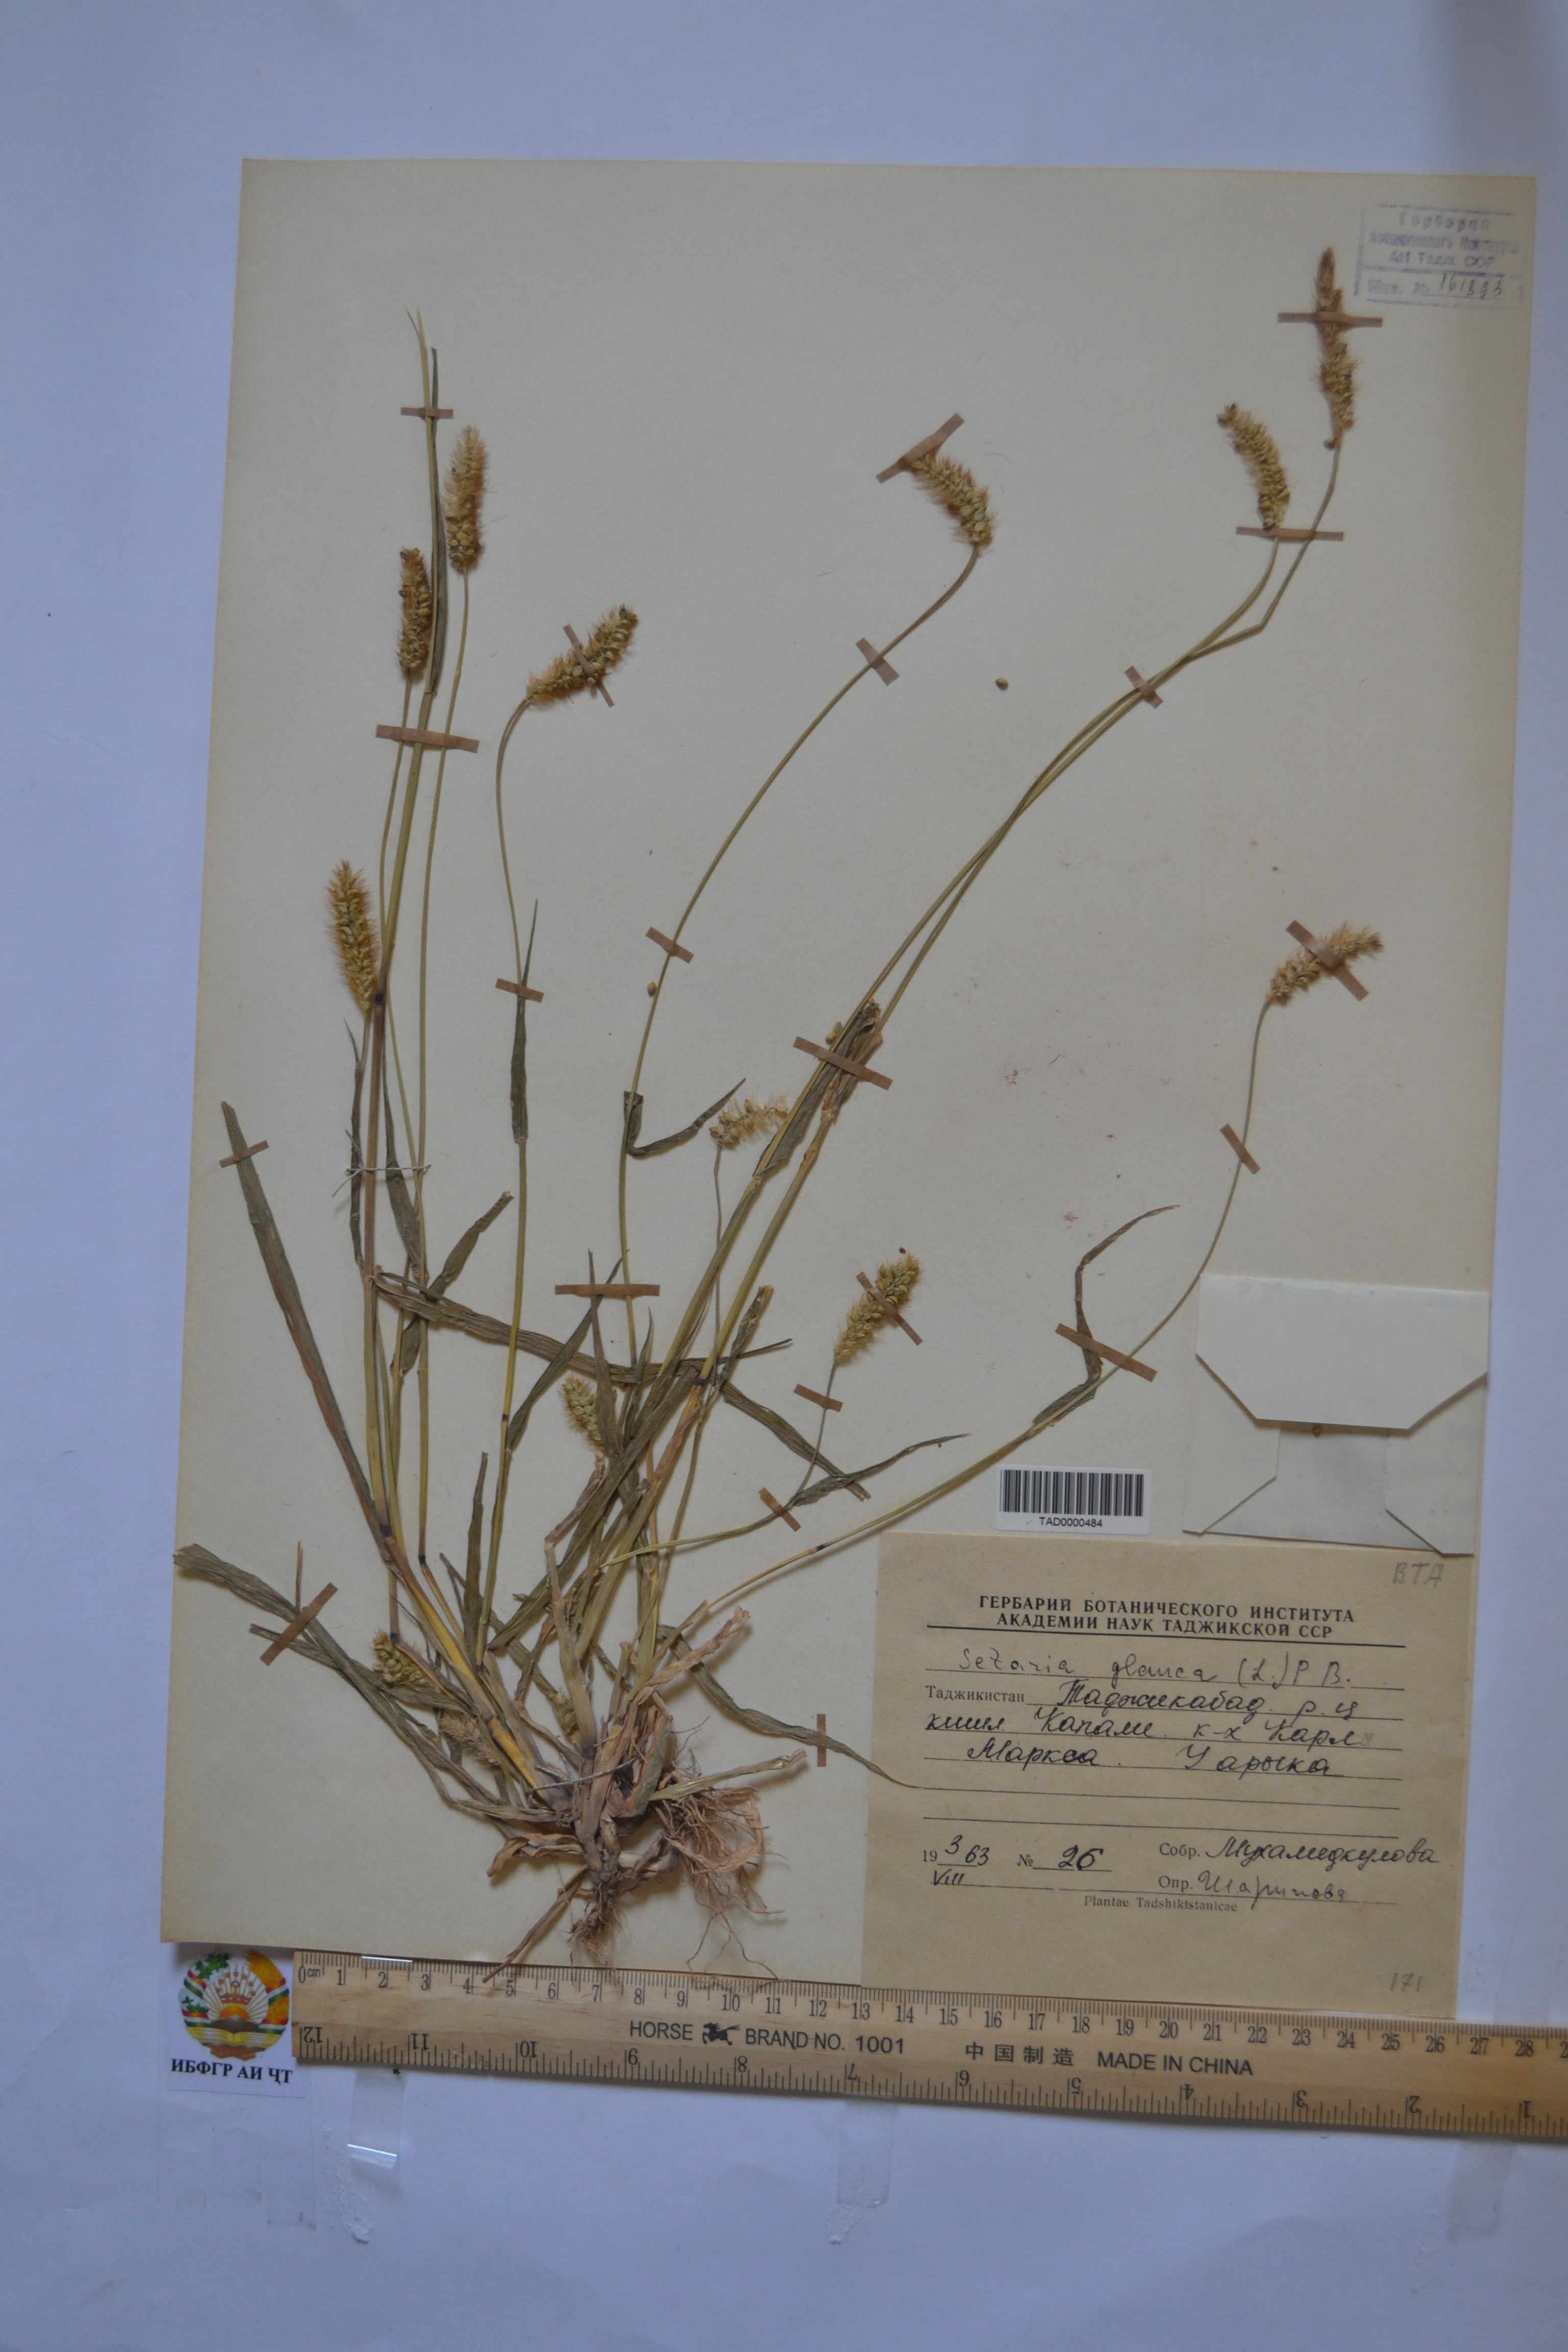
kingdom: Plantae
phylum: Tracheophyta
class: Liliopsida
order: Poales
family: Poaceae
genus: Cenchrus
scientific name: Cenchrus americanus
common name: Pearl millet
